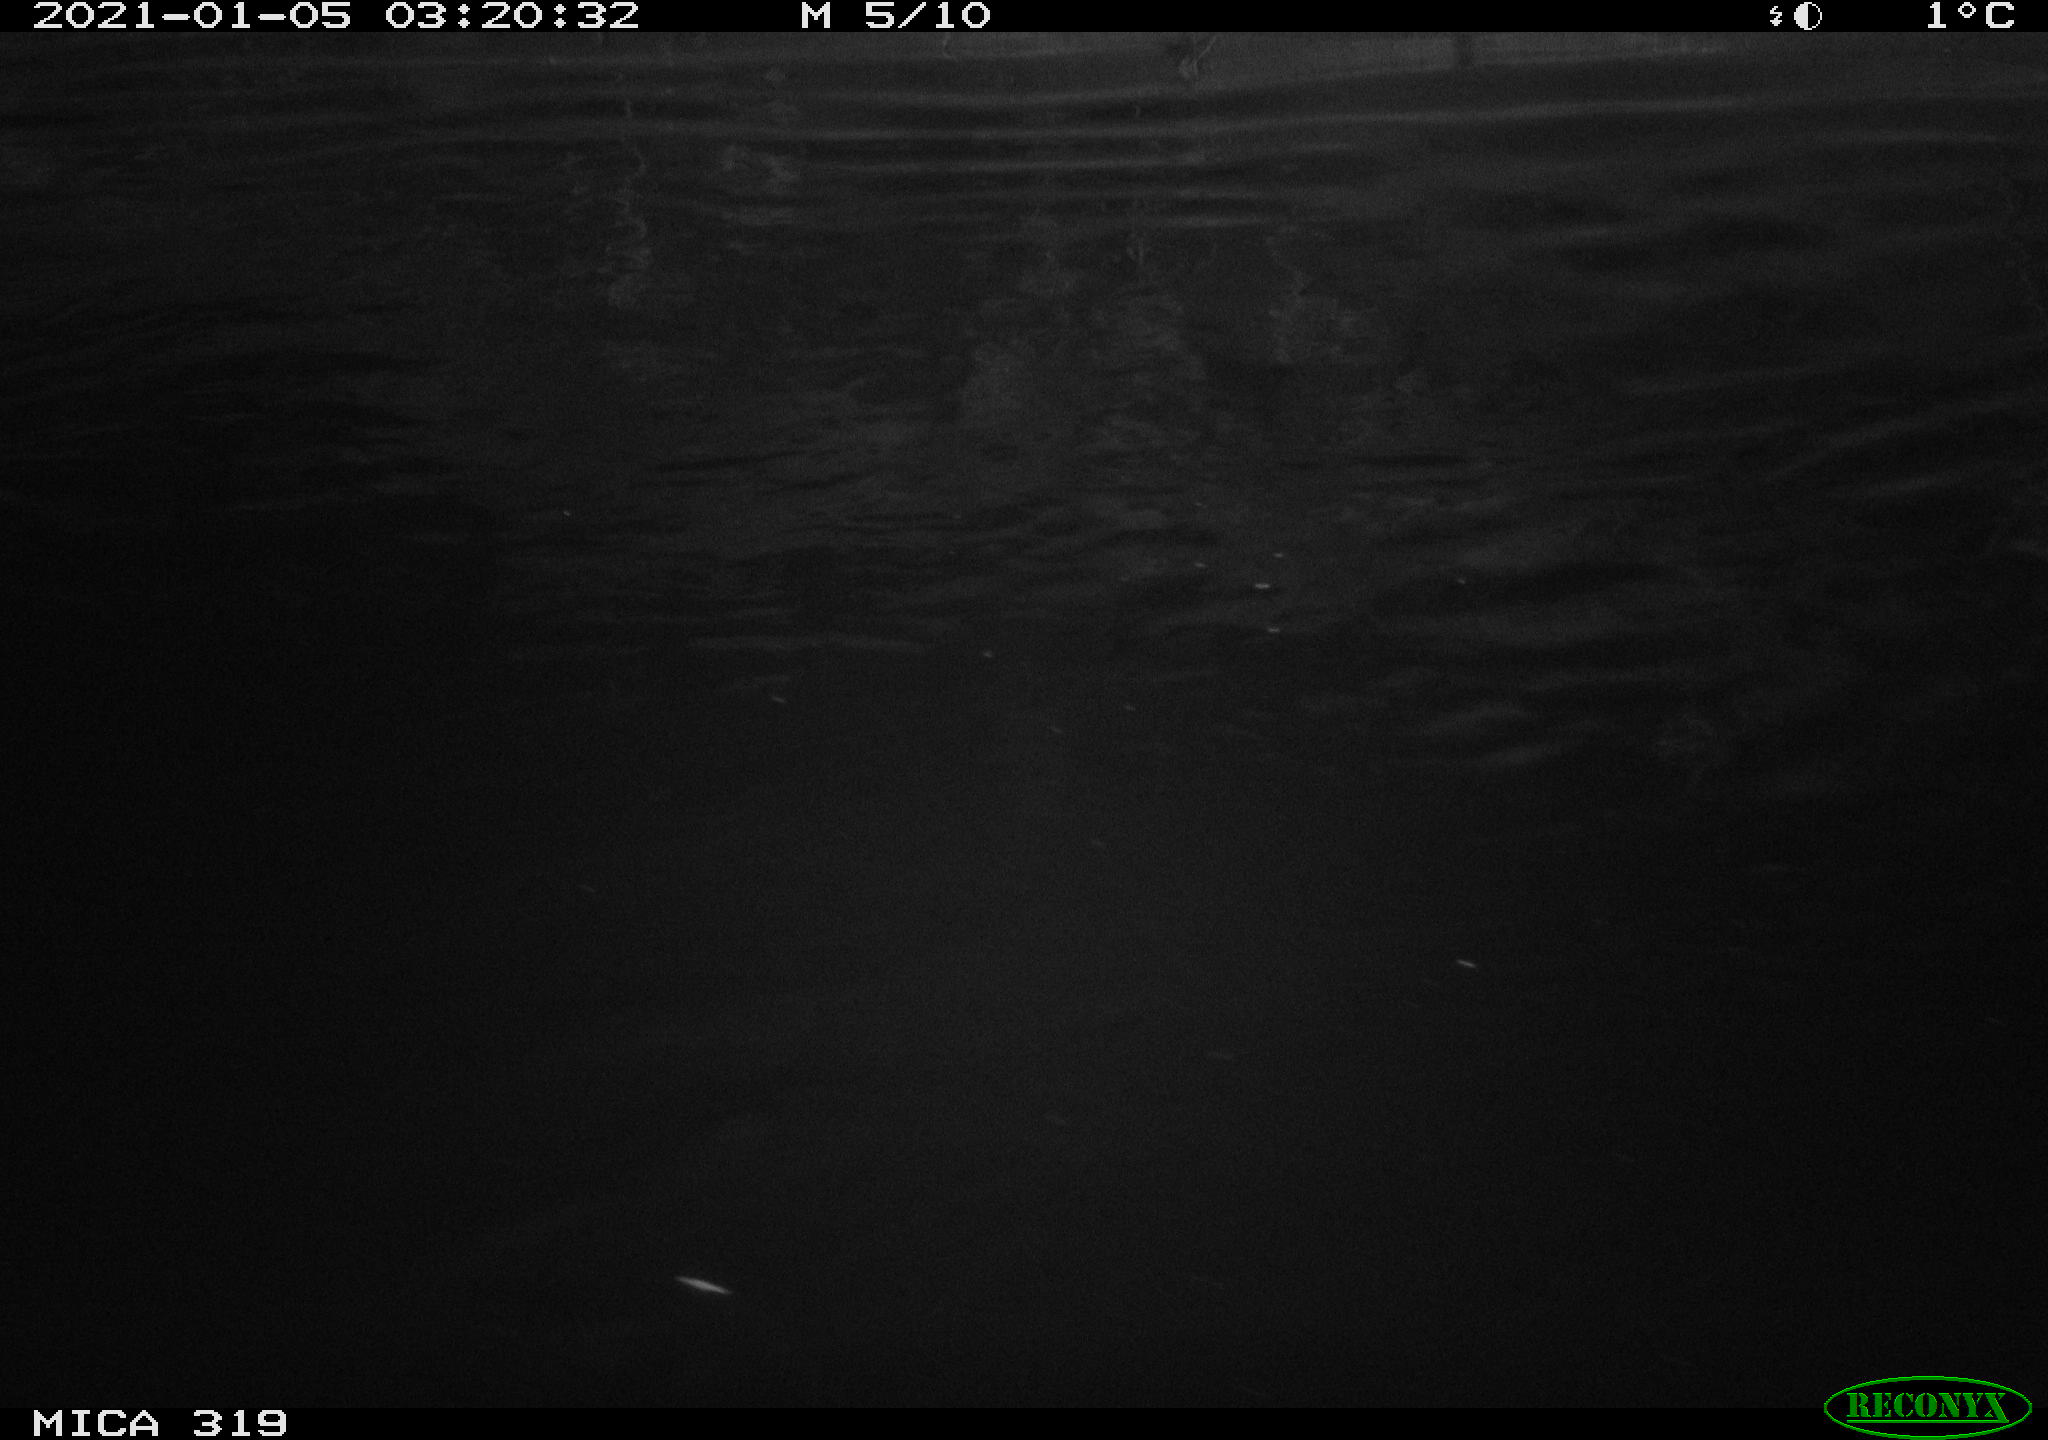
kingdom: Animalia
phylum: Chordata
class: Aves
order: Anseriformes
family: Anatidae
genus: Anas
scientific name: Anas platyrhynchos
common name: Mallard
